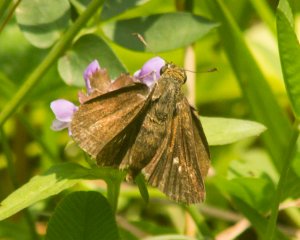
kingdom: Animalia
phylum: Arthropoda
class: Insecta
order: Lepidoptera
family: Hesperiidae
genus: Euphyes
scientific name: Euphyes vestris
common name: Dun Skipper
